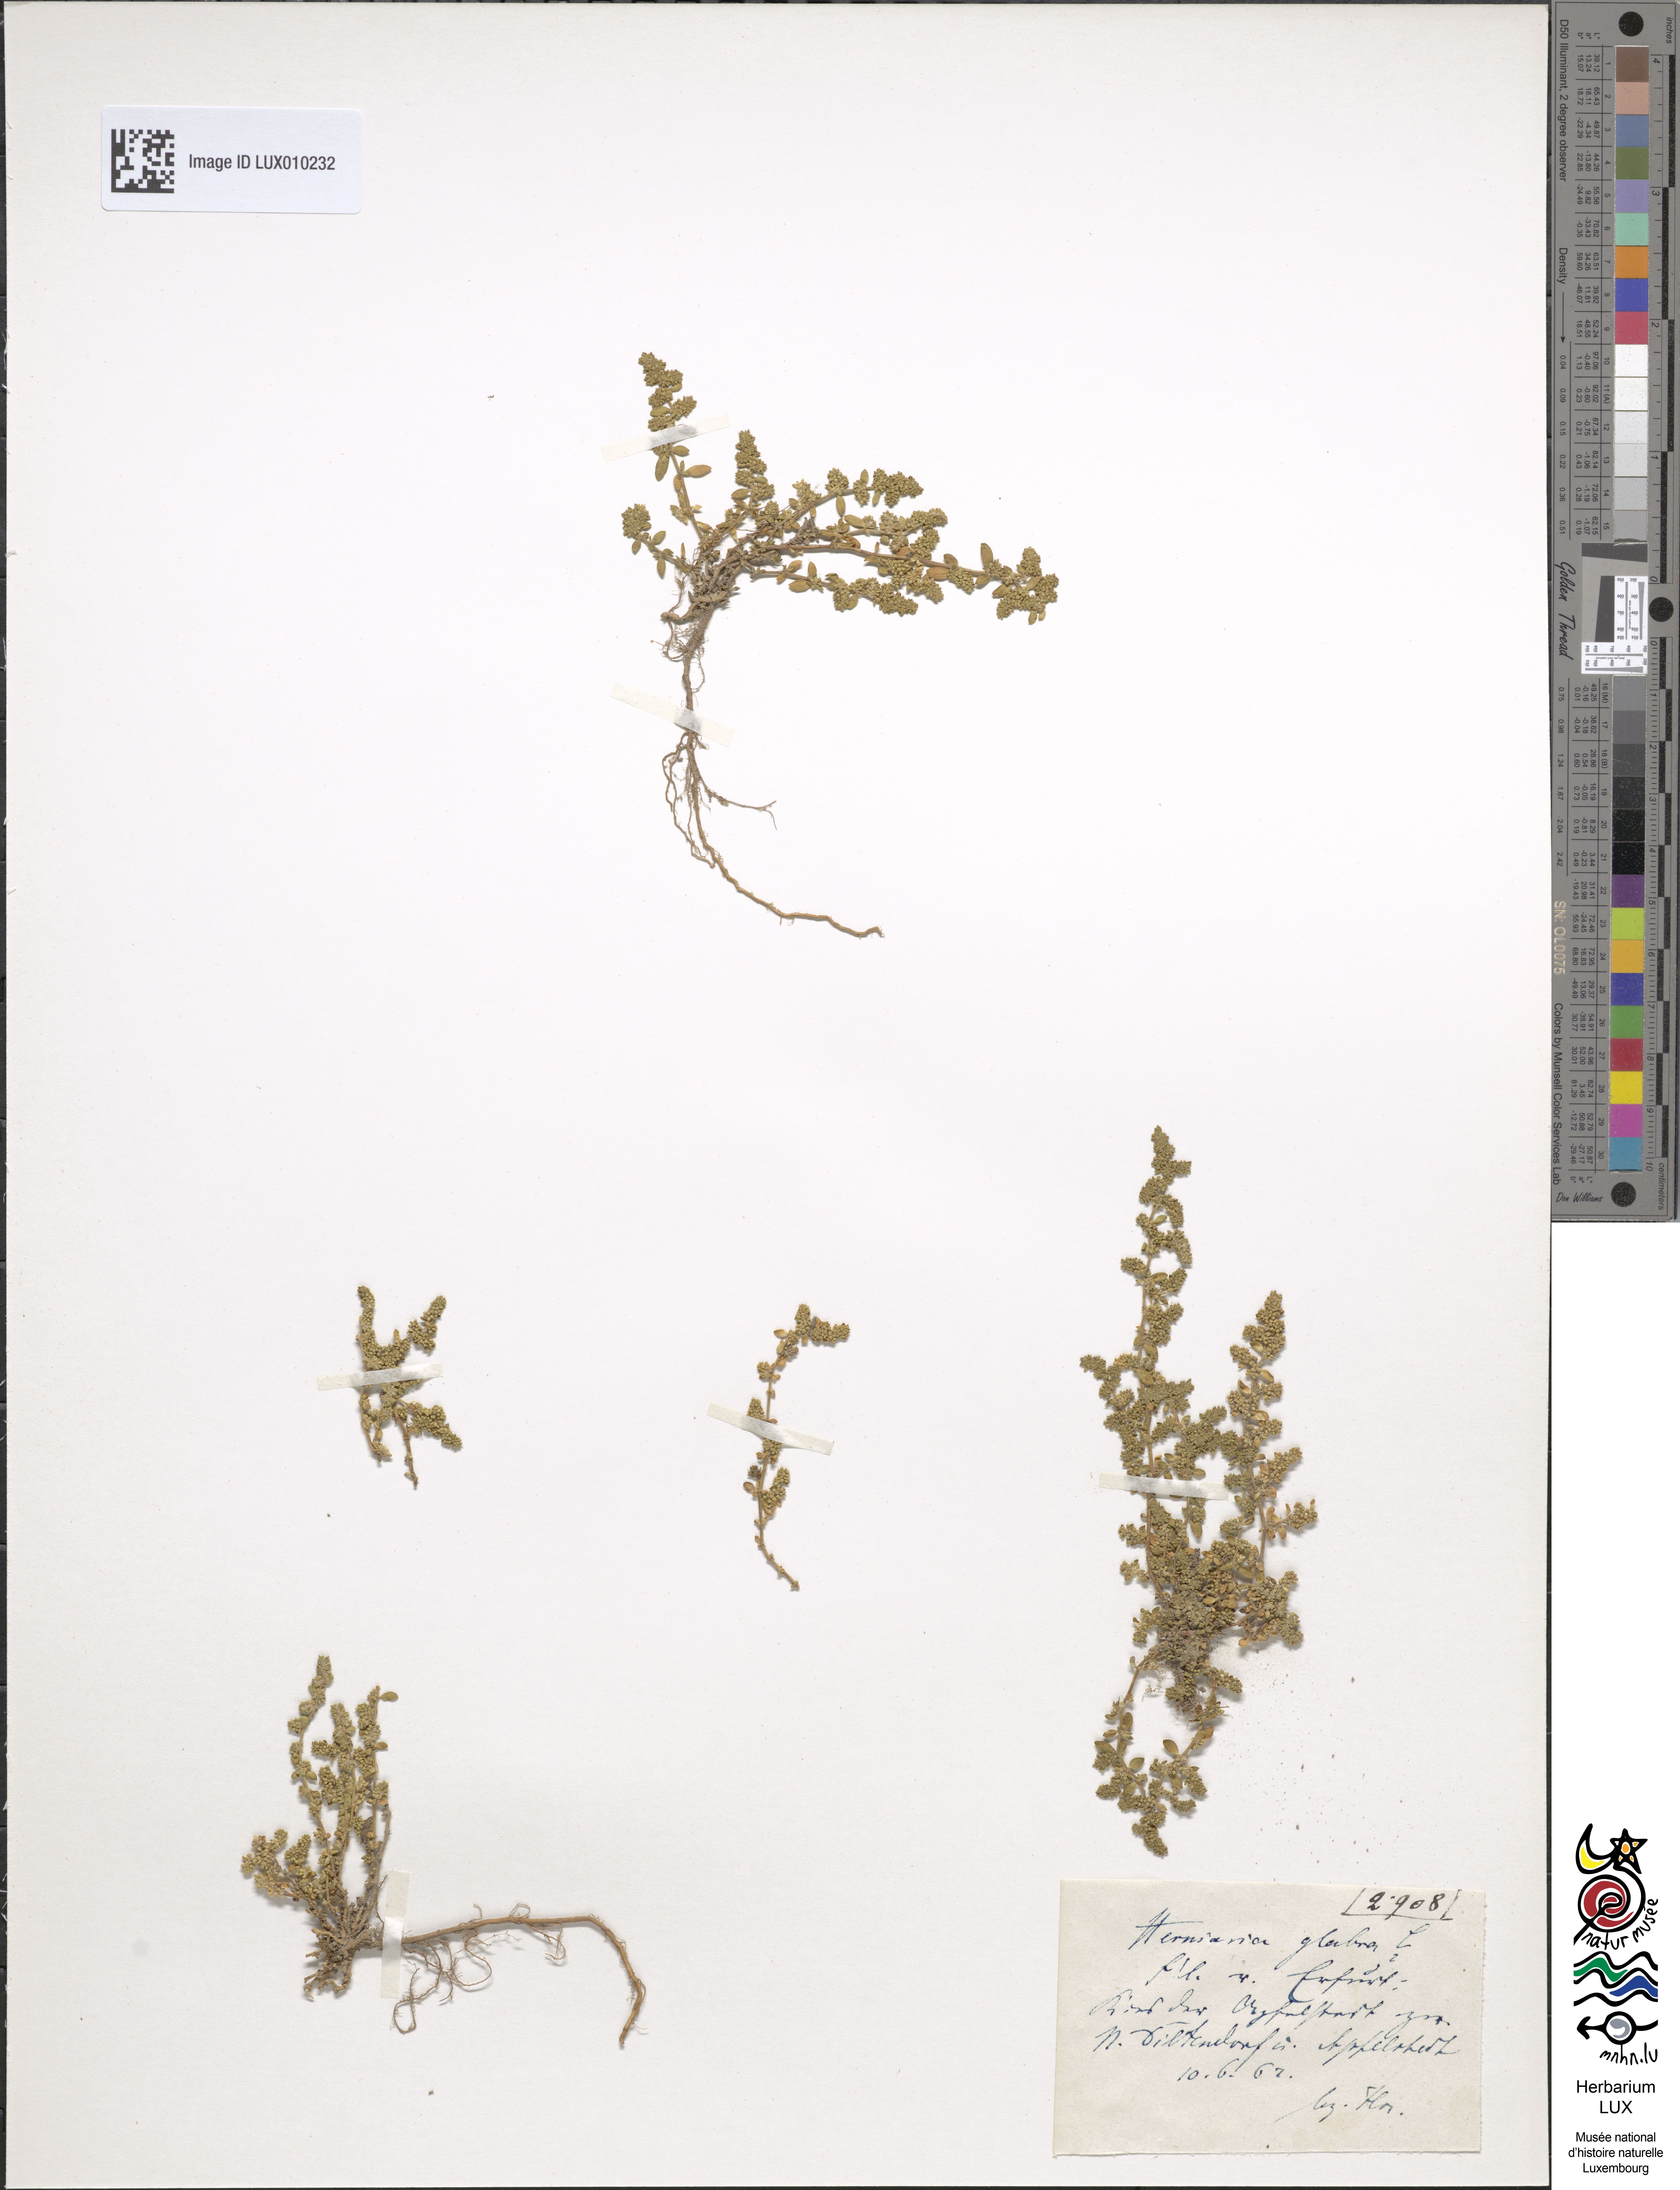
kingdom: Plantae
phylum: Tracheophyta
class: Magnoliopsida
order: Caryophyllales
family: Caryophyllaceae
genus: Herniaria
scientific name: Herniaria glabra
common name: Smooth rupturewort
